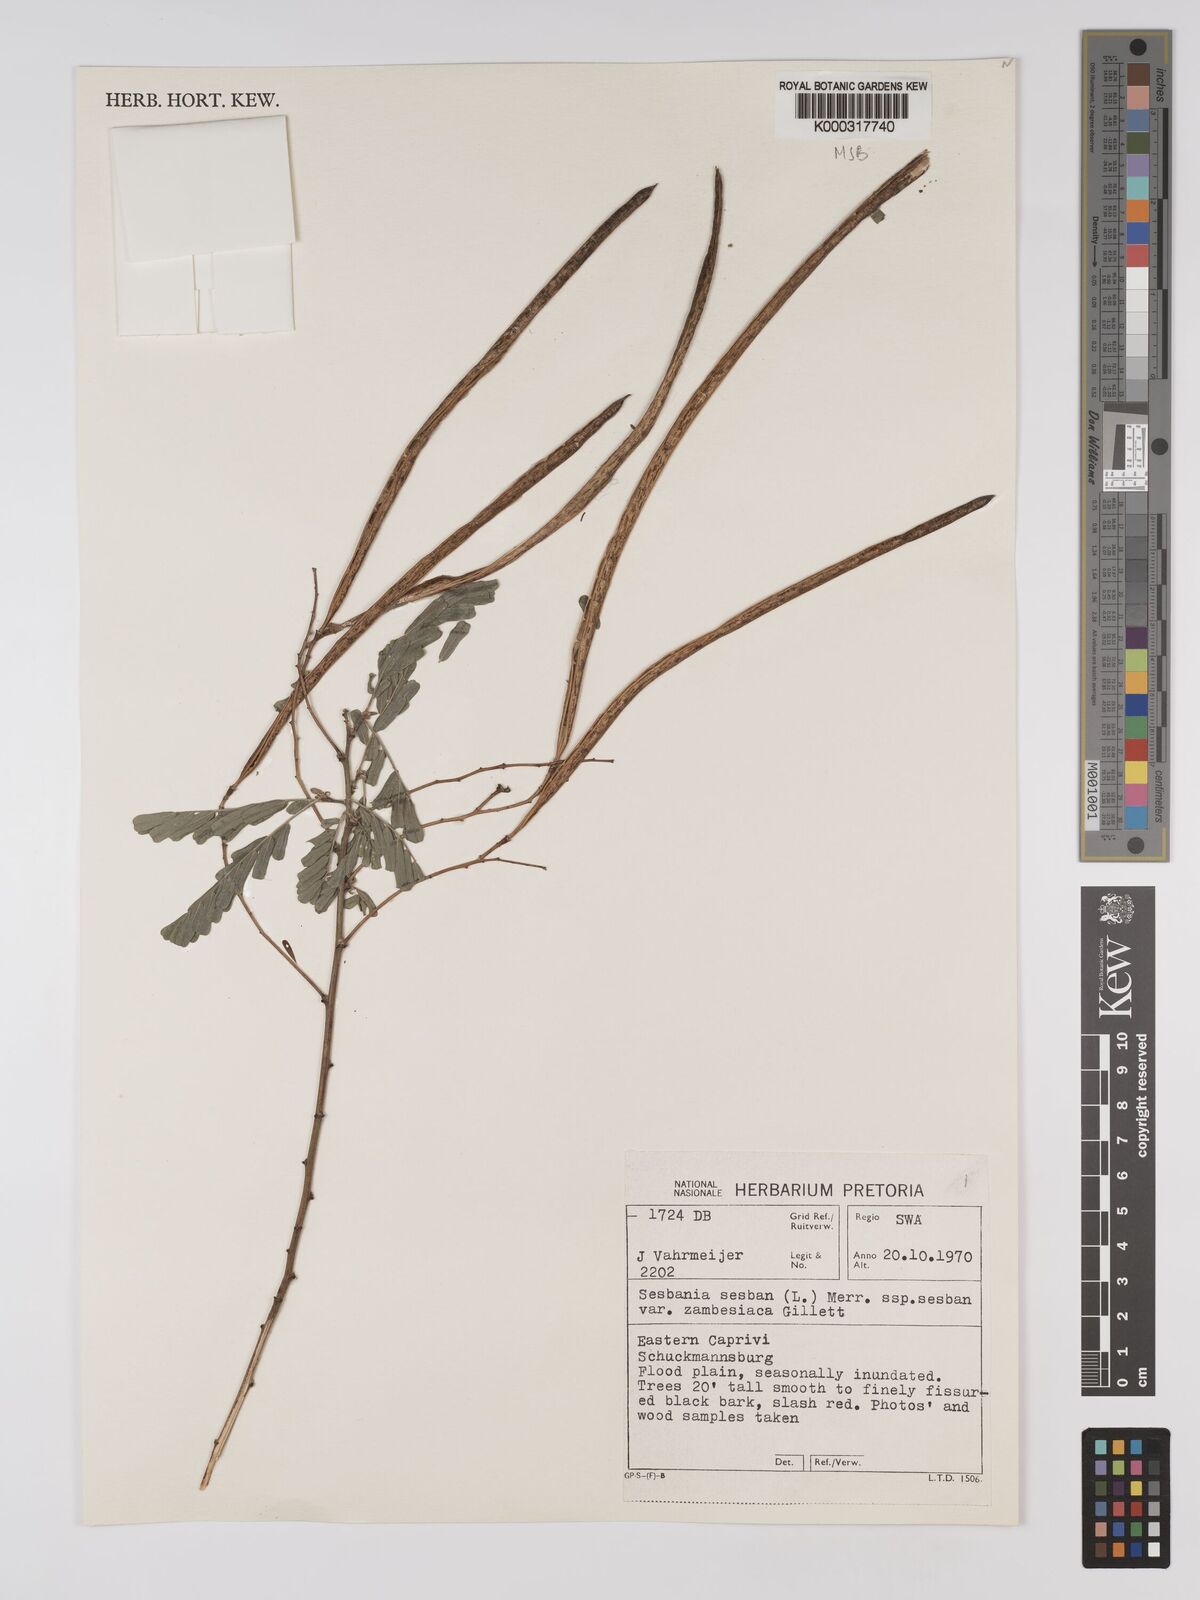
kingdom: Plantae
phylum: Tracheophyta
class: Magnoliopsida
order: Fabales
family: Fabaceae
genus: Sesbania
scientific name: Sesbania sesban
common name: Egyptian sesban
